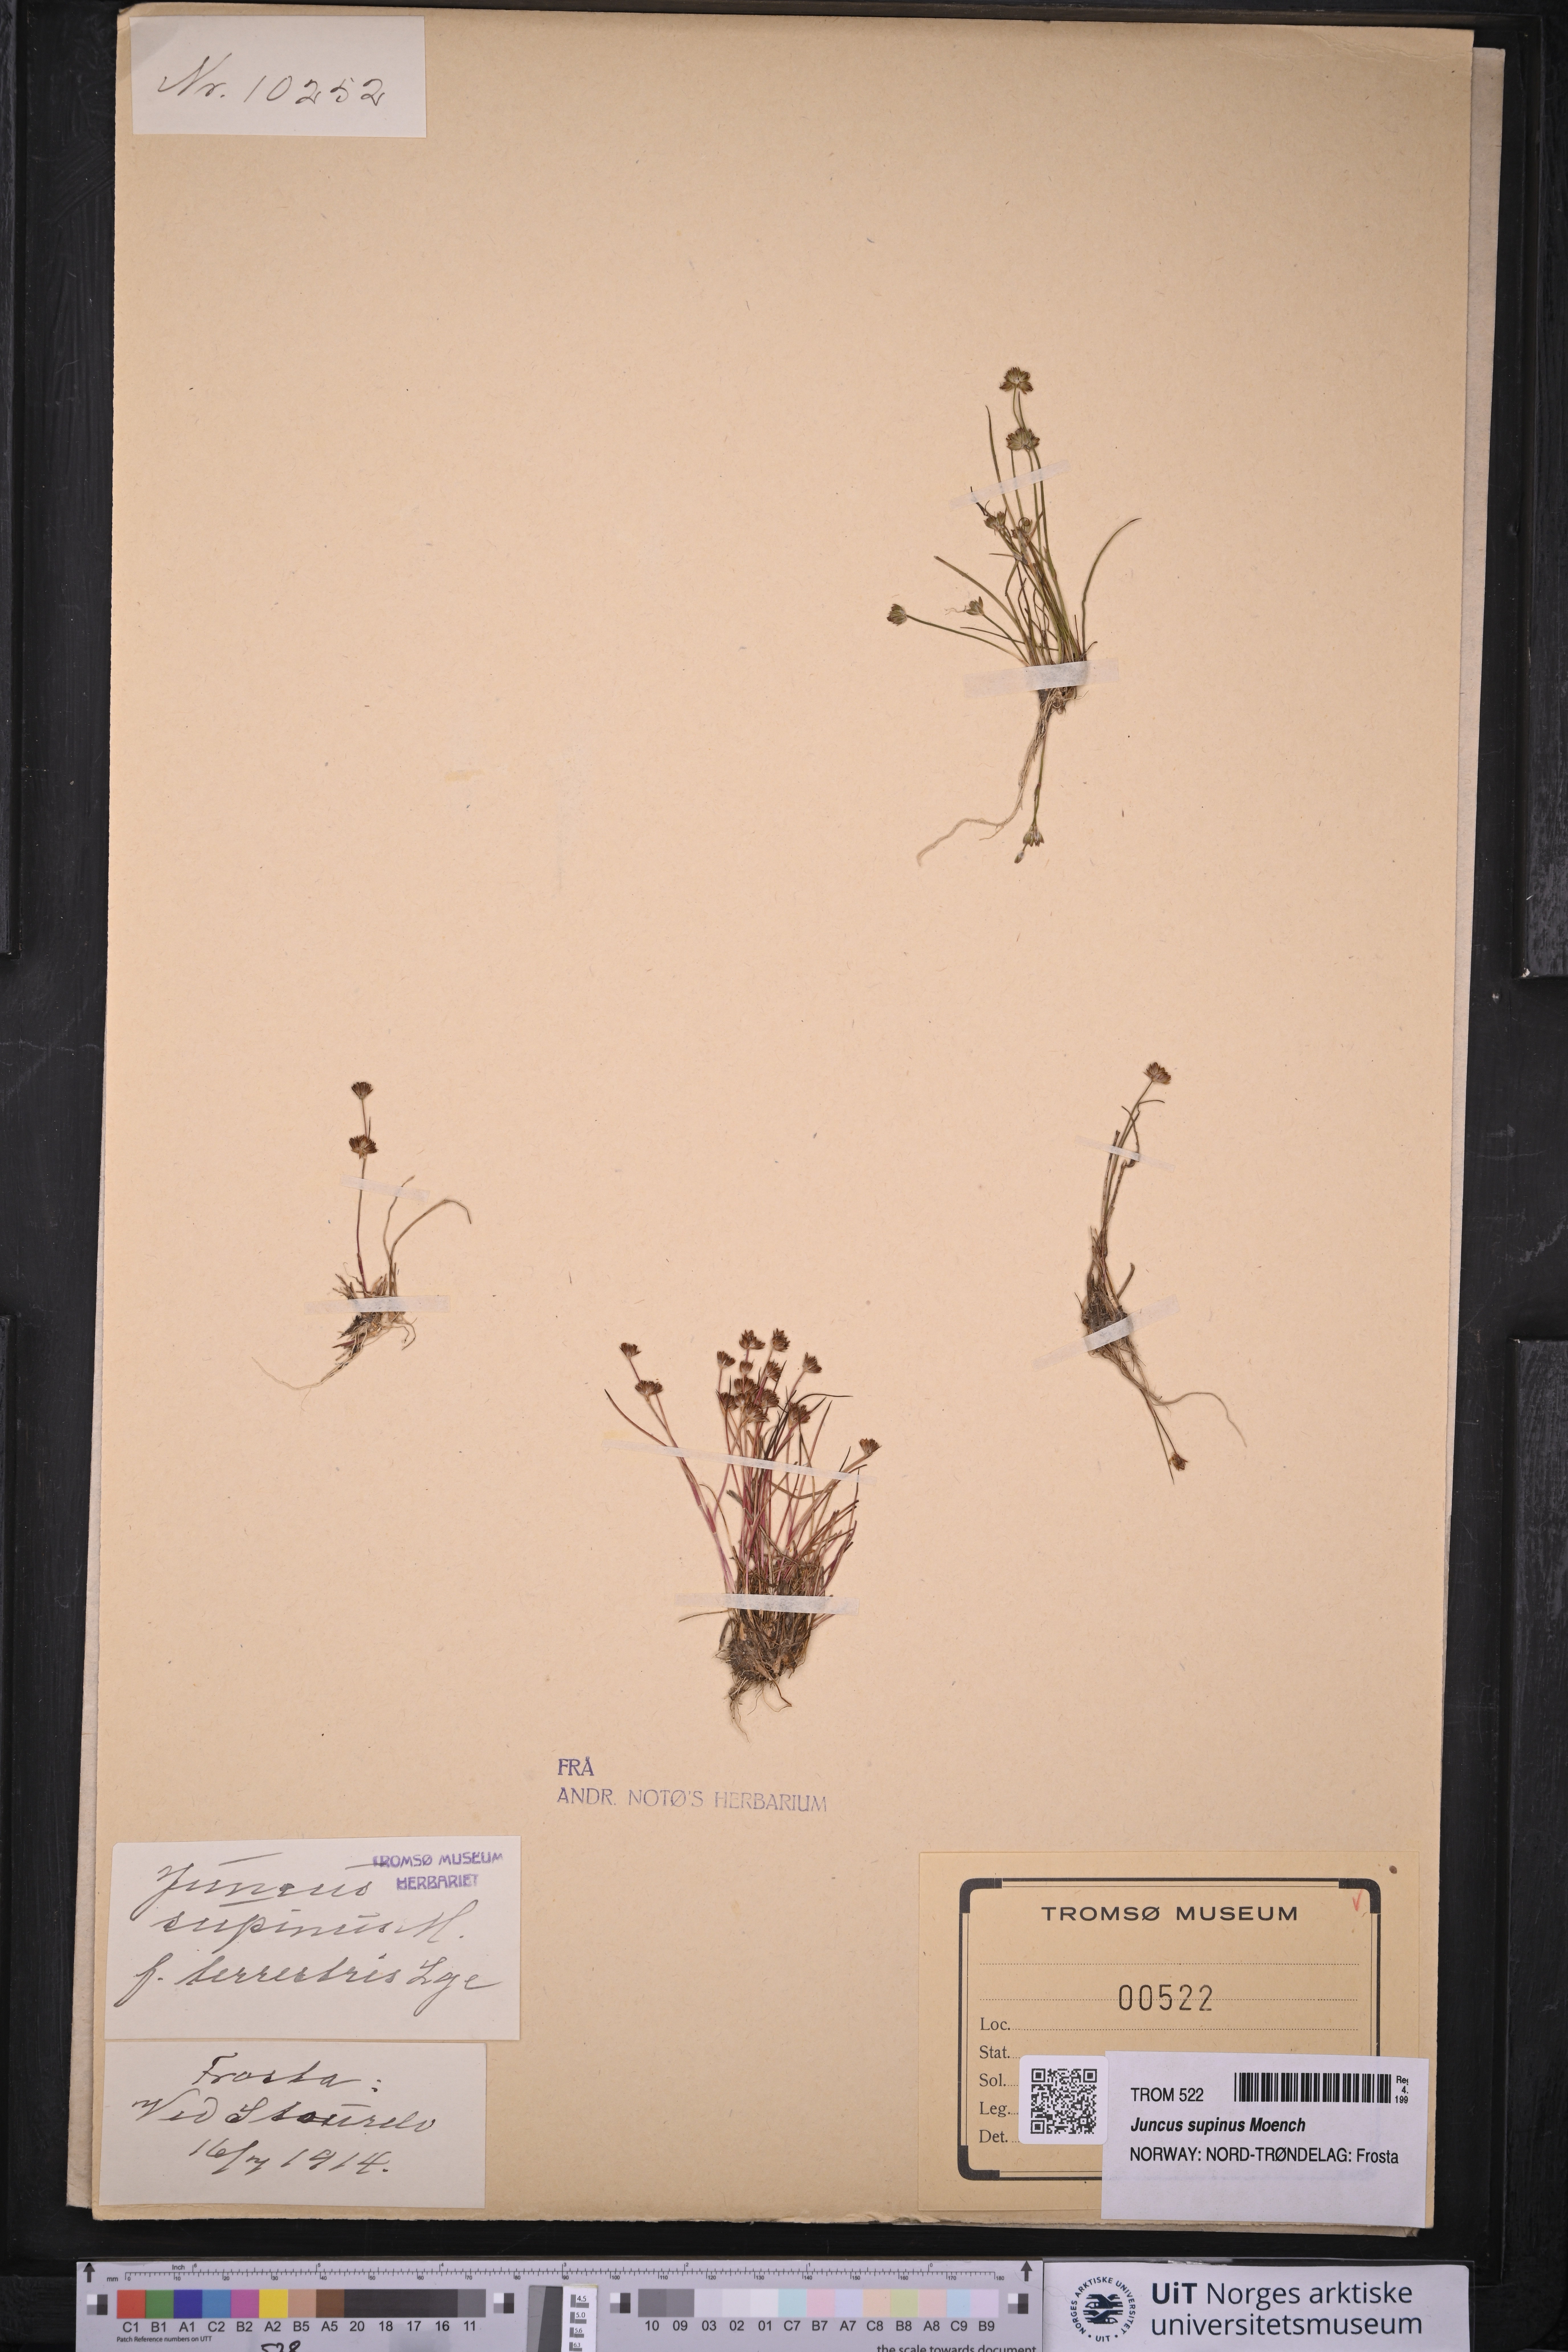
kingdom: Plantae
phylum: Tracheophyta
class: Liliopsida
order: Poales
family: Juncaceae
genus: Juncus
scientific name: Juncus bulbosus
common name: Bulbous rush
